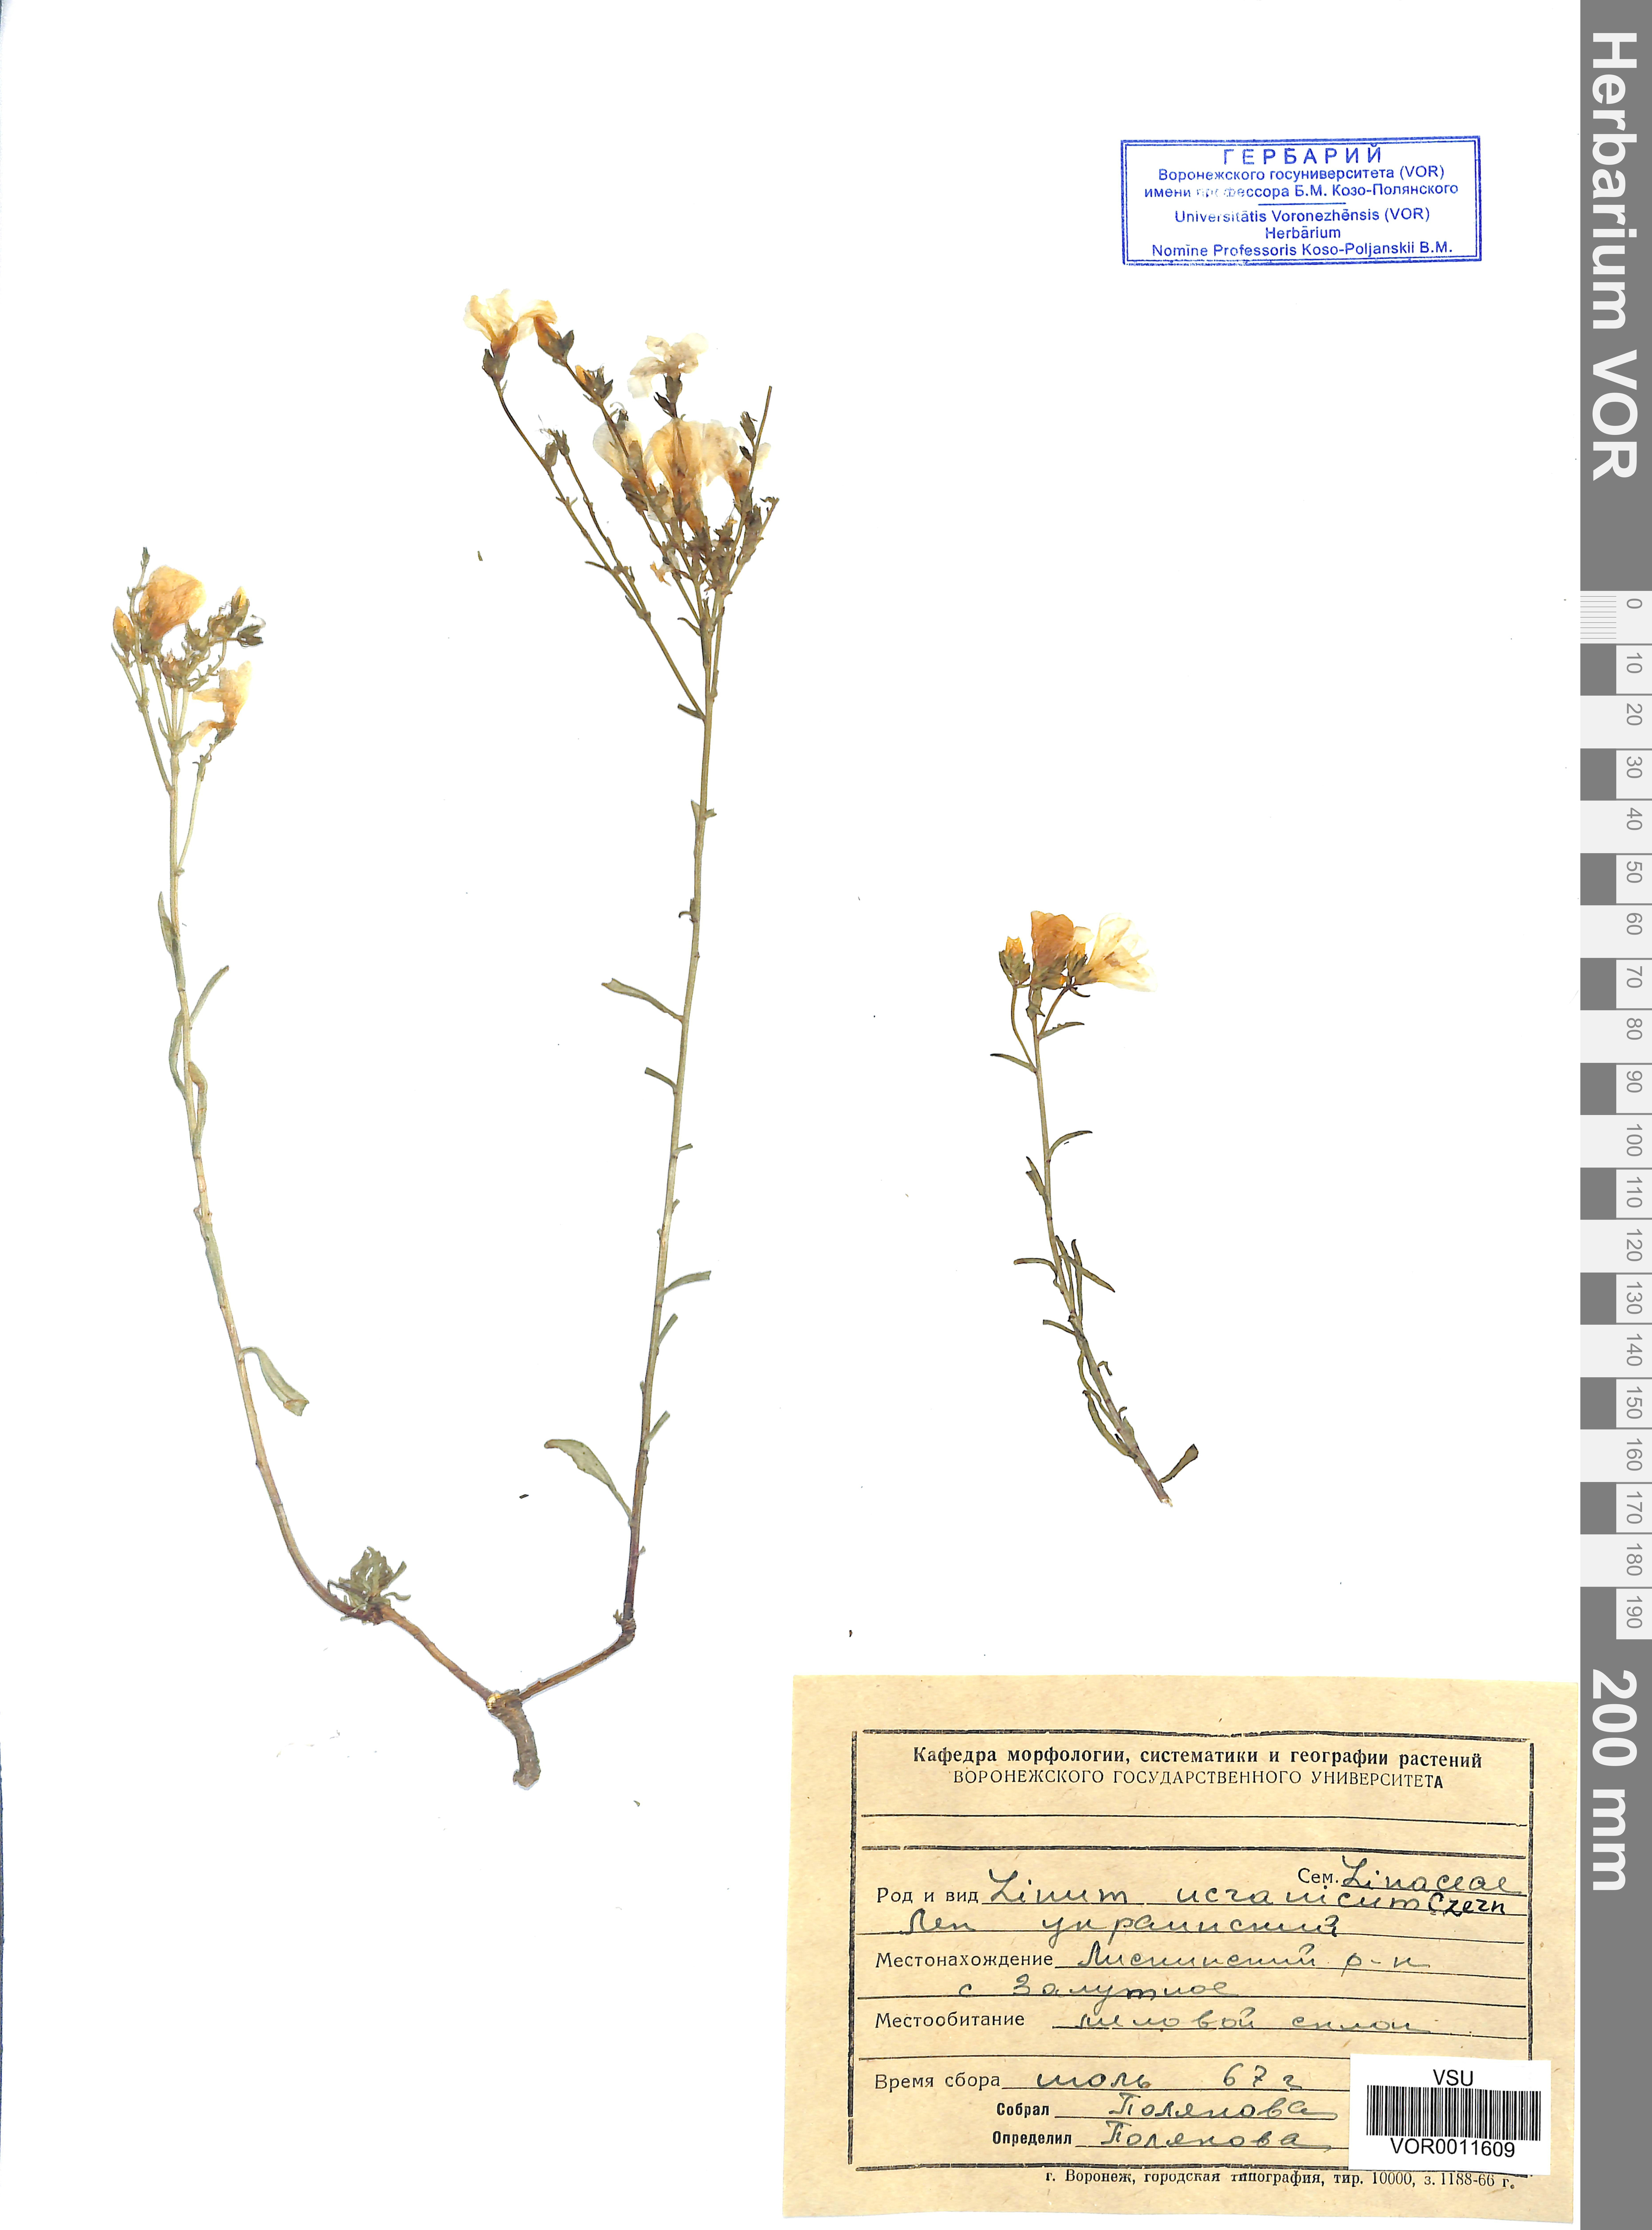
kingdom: Plantae
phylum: Tracheophyta
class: Magnoliopsida
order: Malpighiales
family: Linaceae
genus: Linum
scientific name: Linum ucranicum
